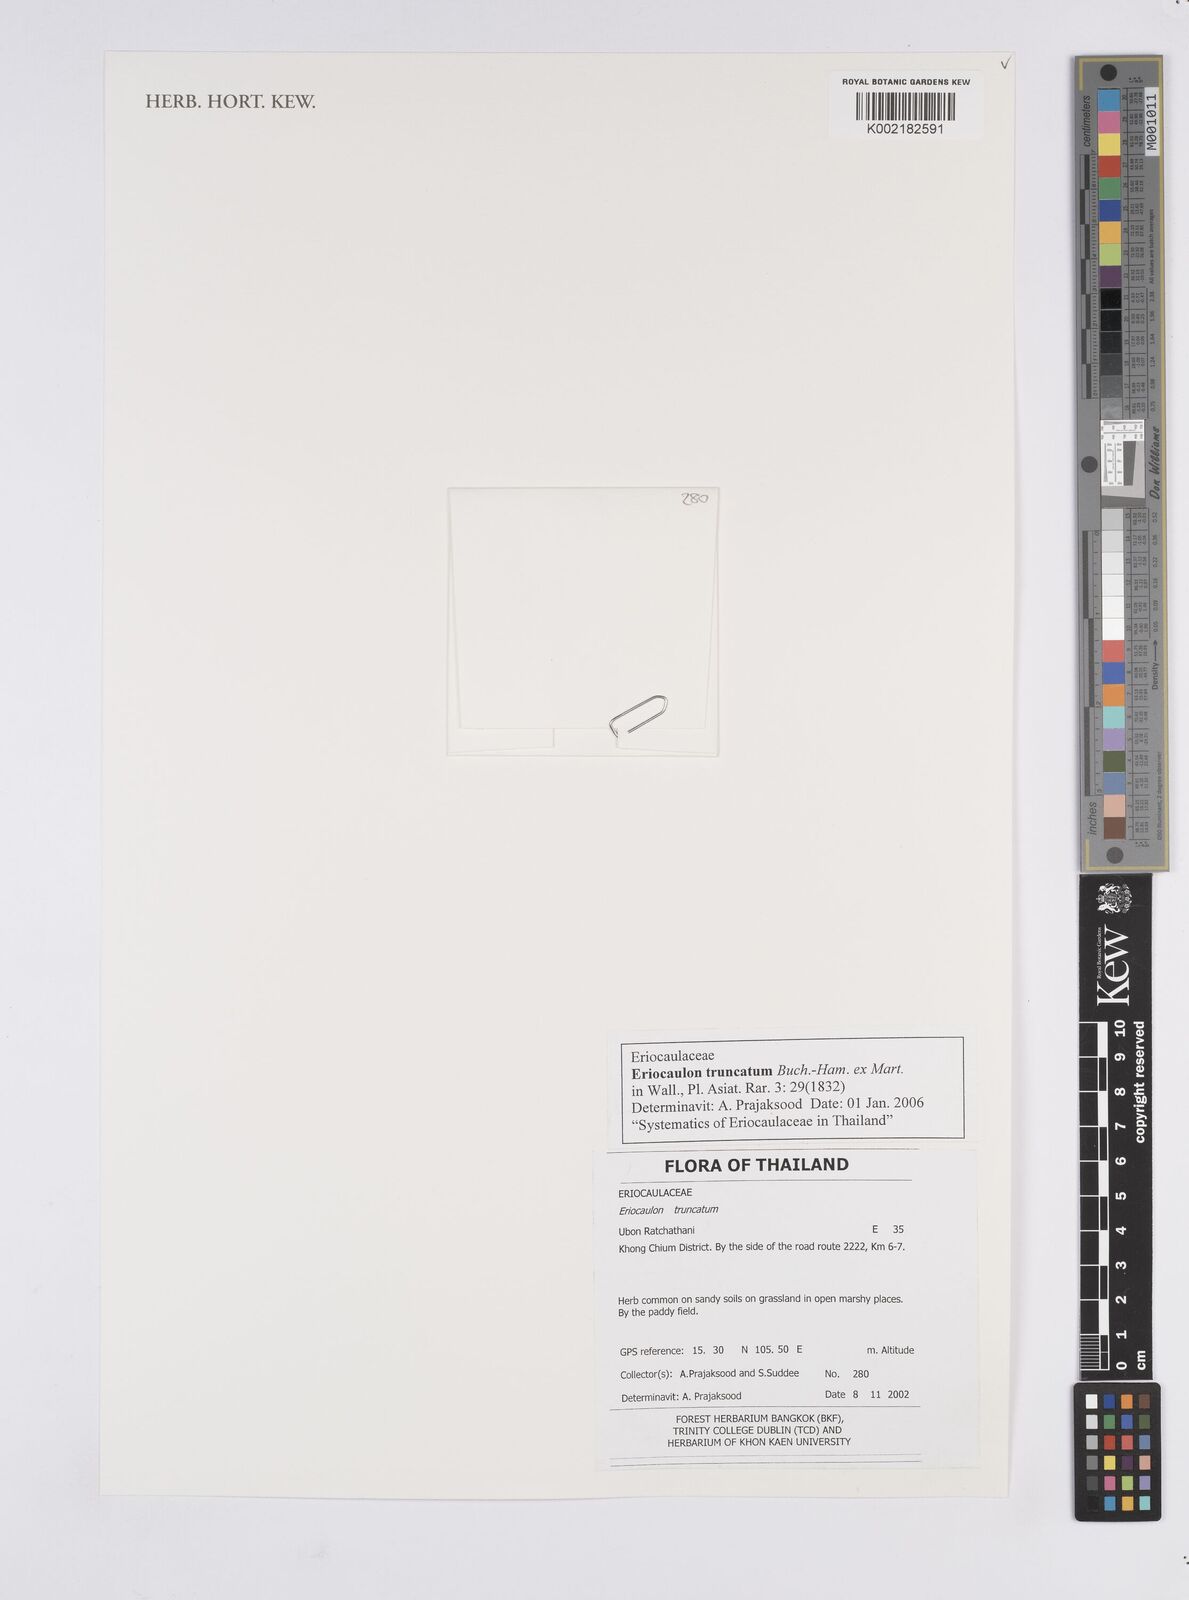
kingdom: Plantae
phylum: Tracheophyta
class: Liliopsida
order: Poales
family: Eriocaulaceae
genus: Eriocaulon
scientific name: Eriocaulon truncatum
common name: Short pipe-wort
